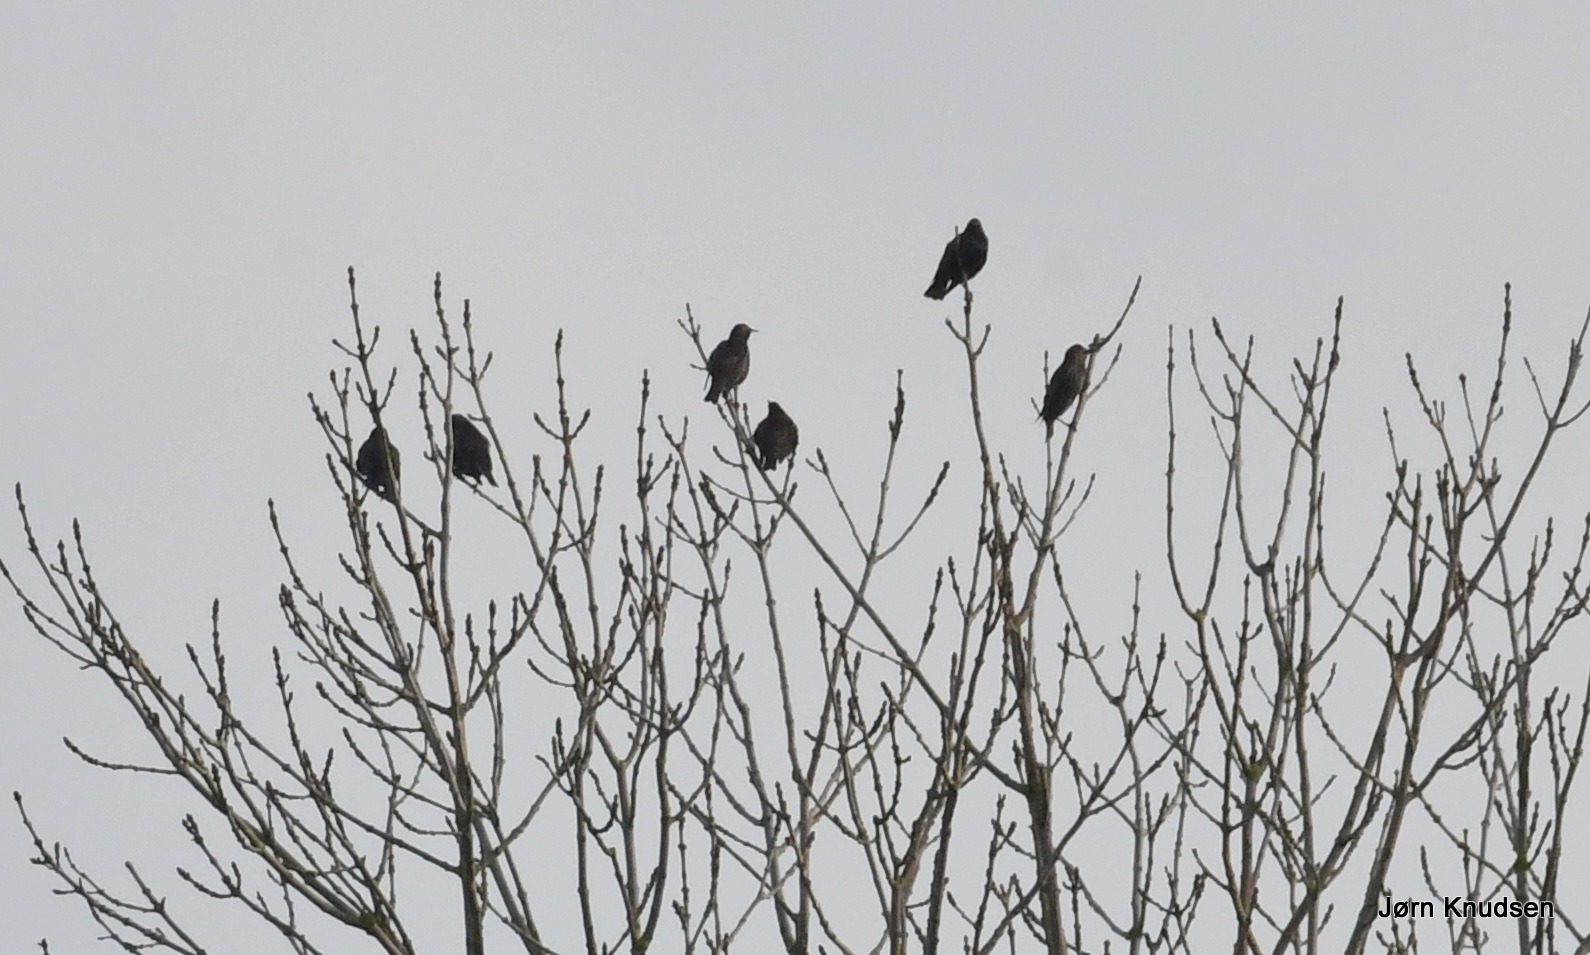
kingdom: Animalia
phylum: Chordata
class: Aves
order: Passeriformes
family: Sturnidae
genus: Sturnus
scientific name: Sturnus vulgaris
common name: Stær
